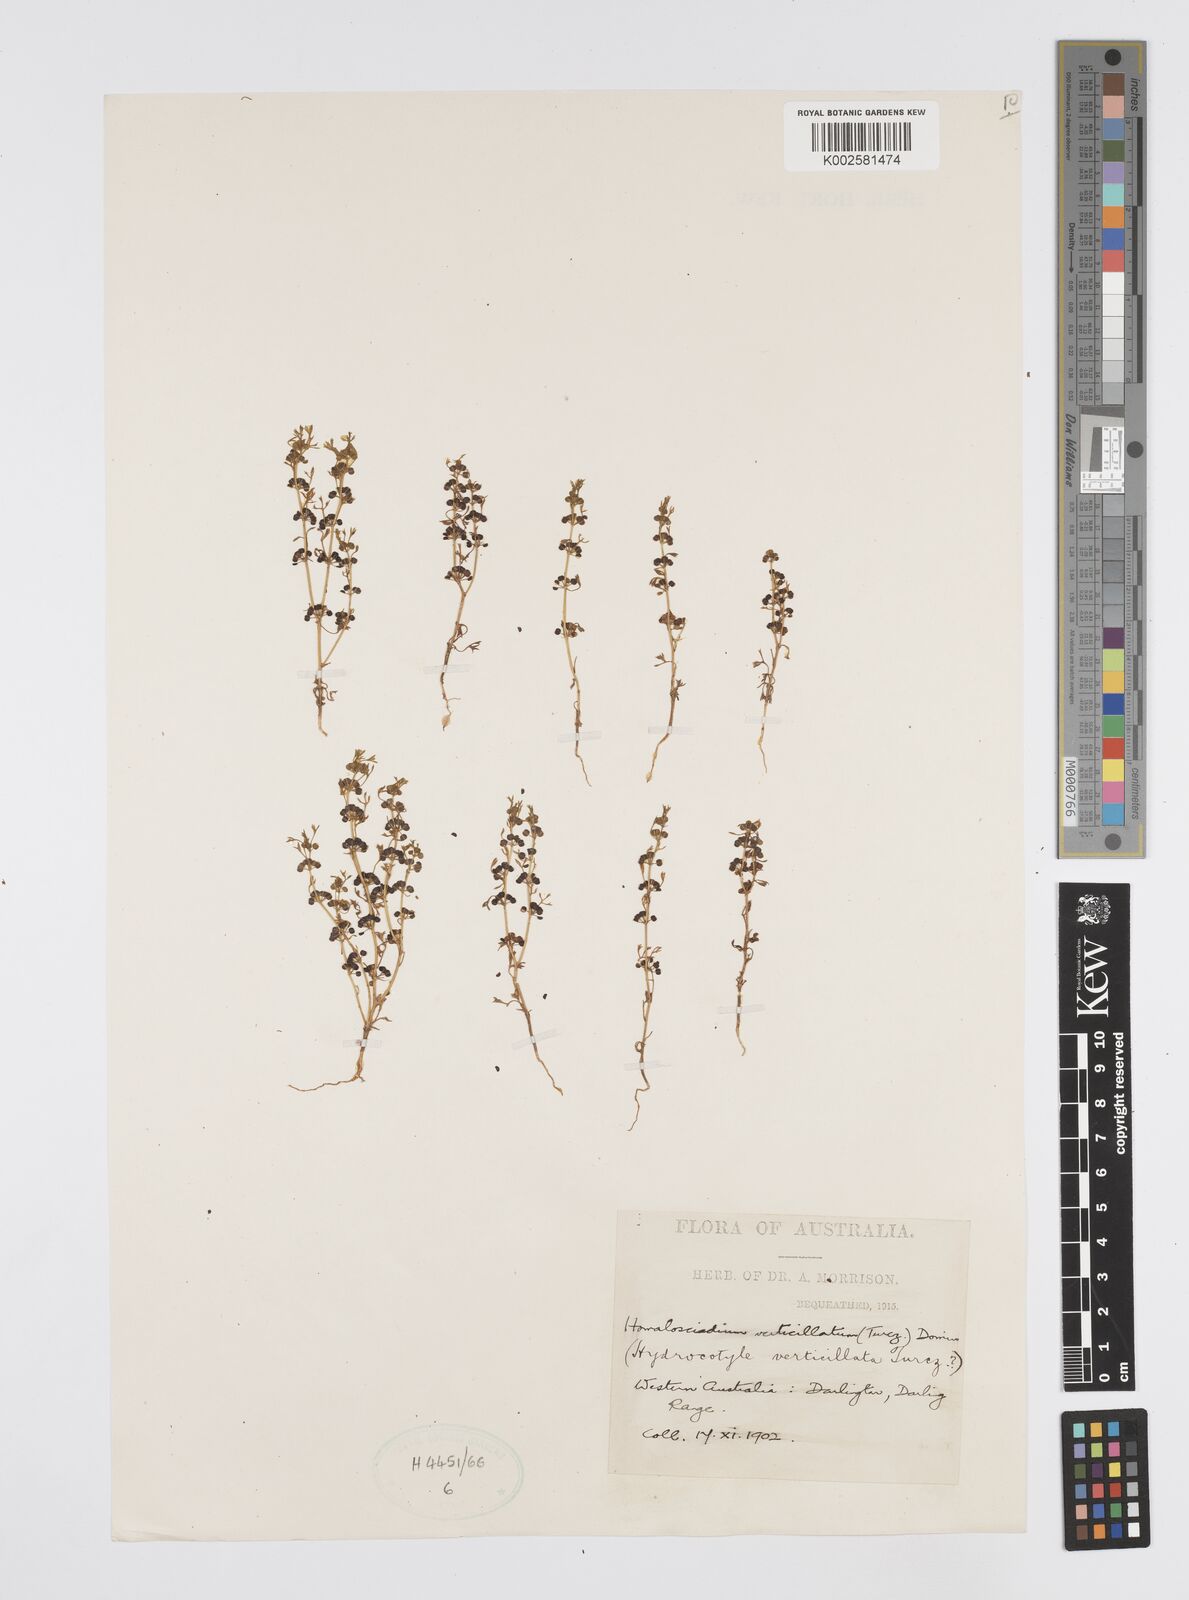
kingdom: Plantae
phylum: Tracheophyta
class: Magnoliopsida
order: Apiales
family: Apiaceae
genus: Homalosciadium
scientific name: Homalosciadium homalocarpum
